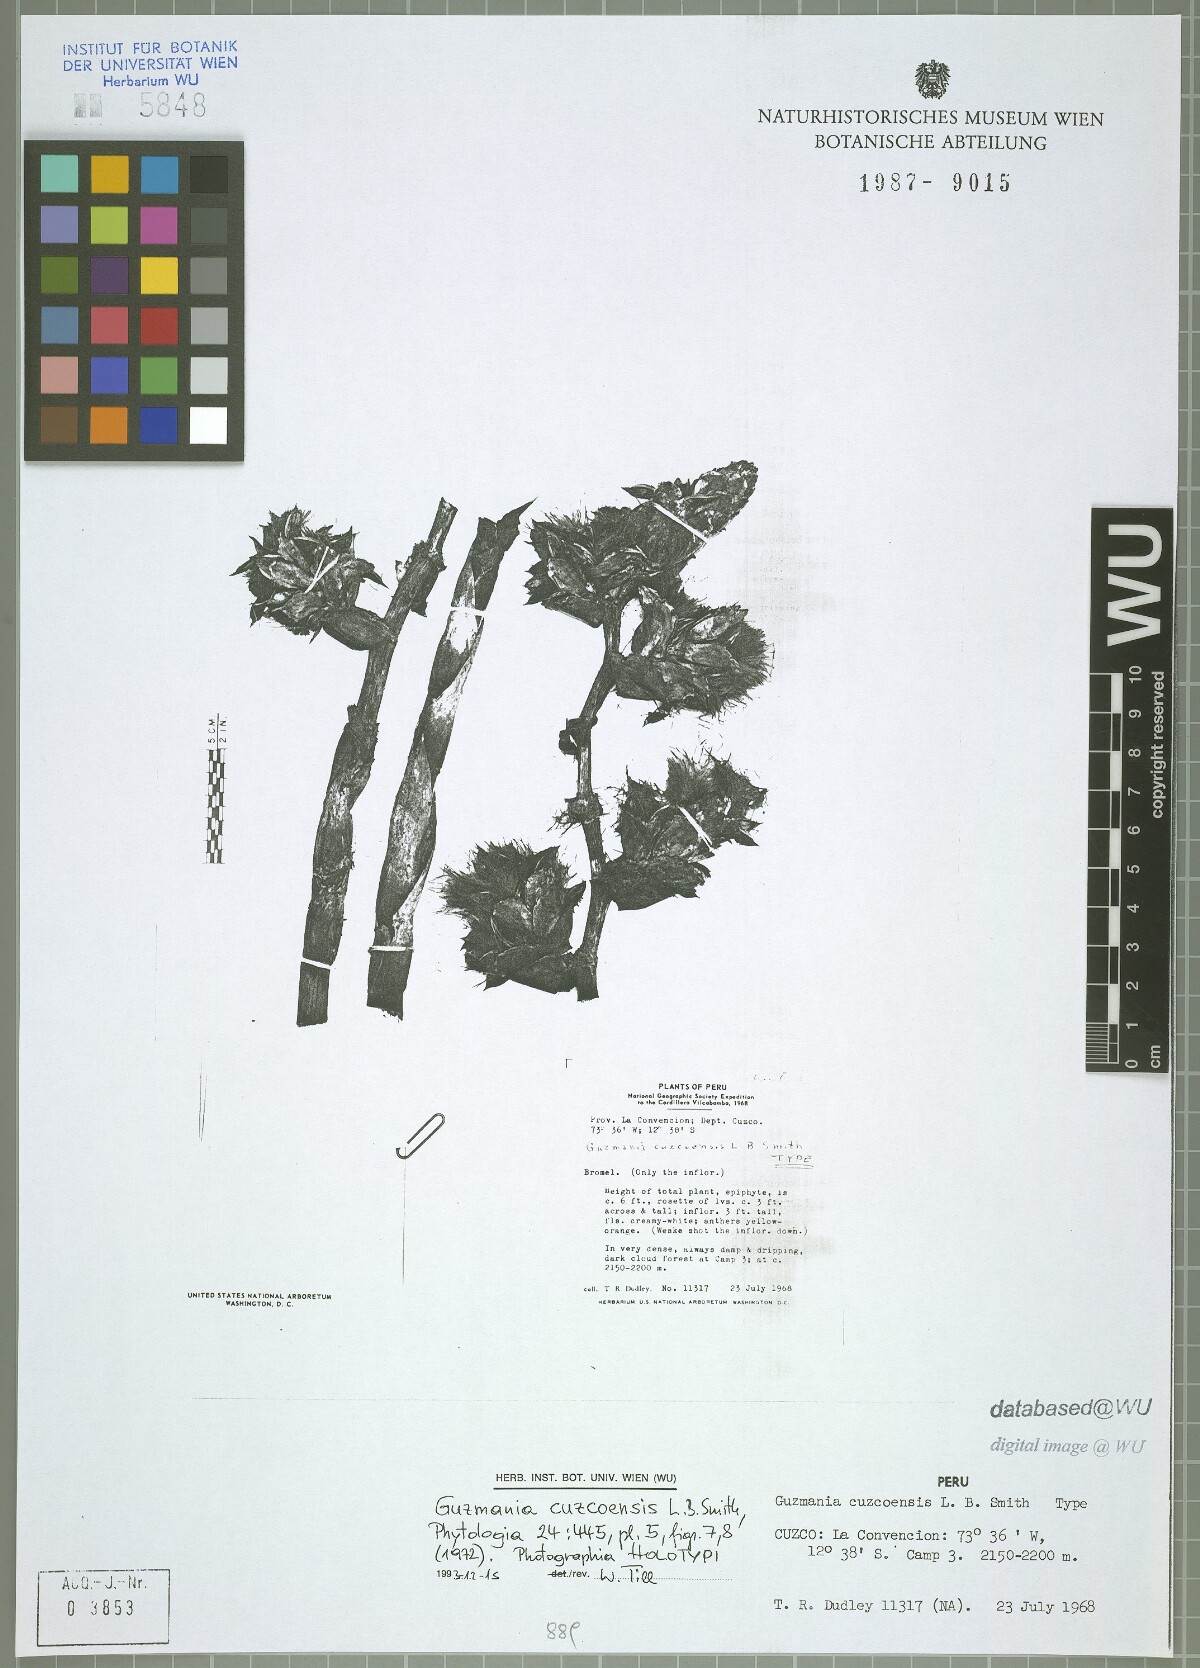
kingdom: Plantae
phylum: Tracheophyta
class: Liliopsida
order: Poales
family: Bromeliaceae
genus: Guzmania
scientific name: Guzmania cuzcoensis
